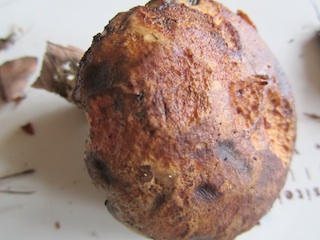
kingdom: Fungi
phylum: Basidiomycota
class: Agaricomycetes
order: Boletales
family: Boletaceae
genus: Cyanoboletus
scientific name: Cyanoboletus pulverulentus
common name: sortblånende rørhat
